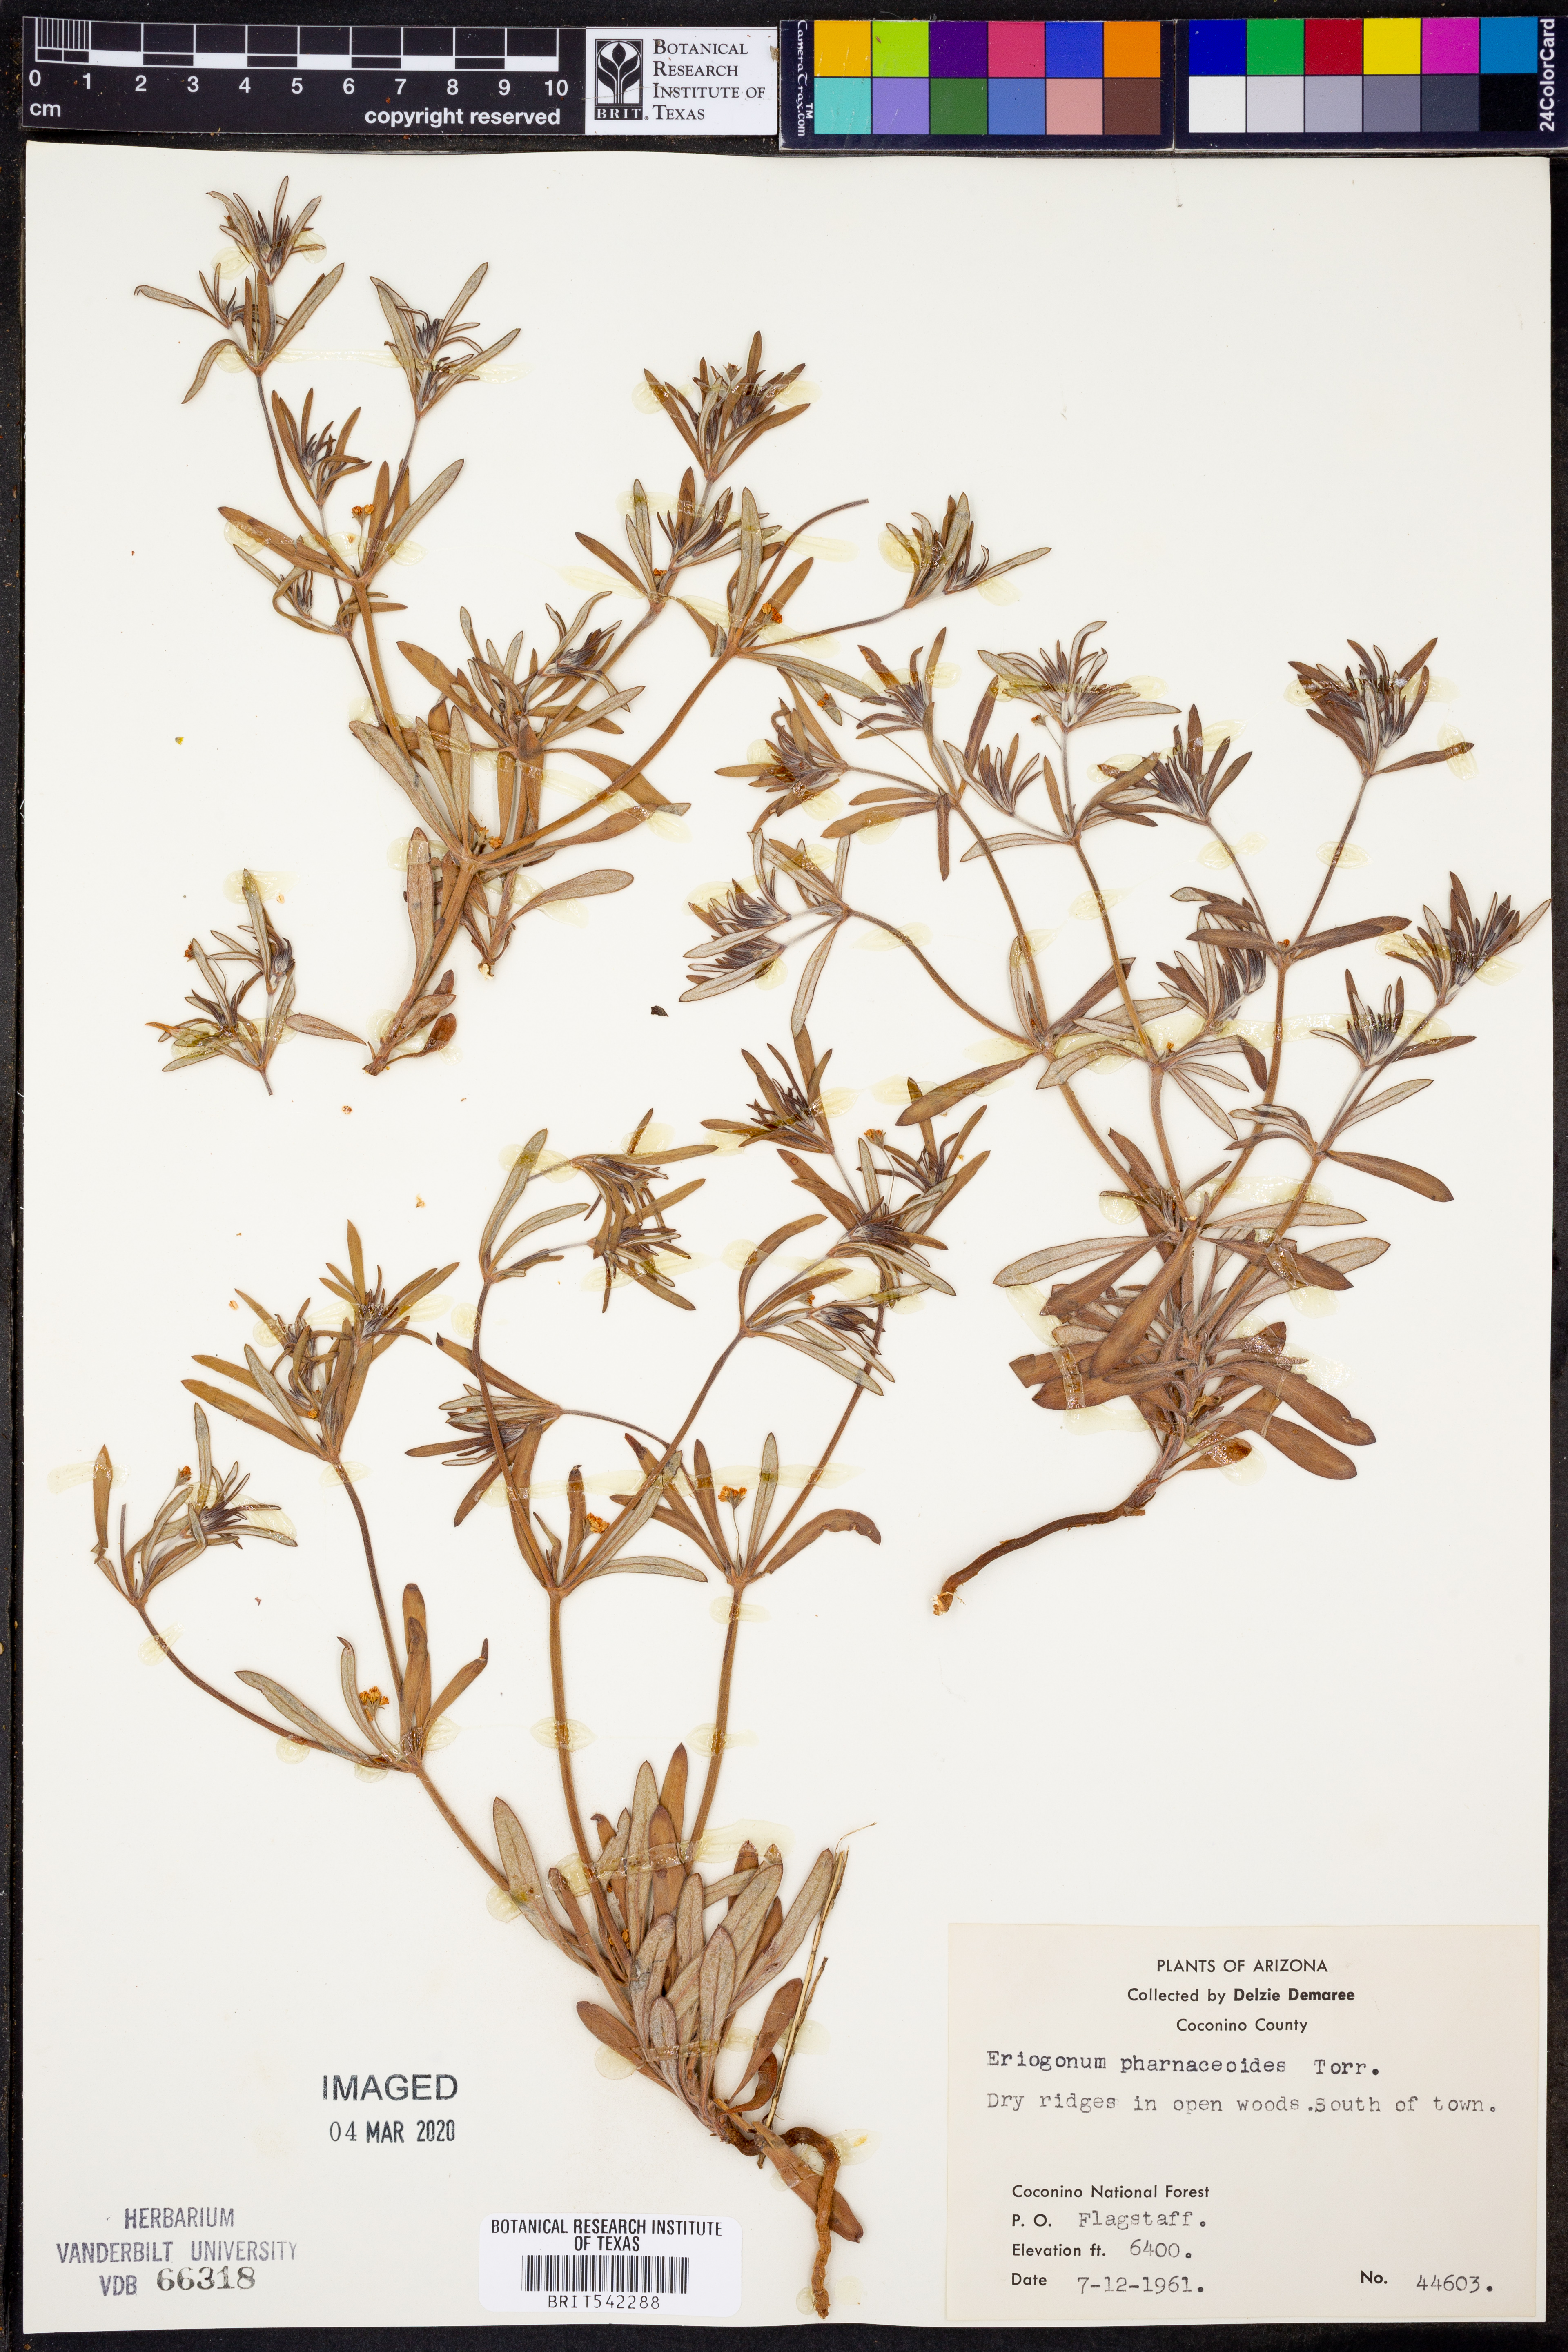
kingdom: Plantae
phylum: Tracheophyta
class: Magnoliopsida
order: Caryophyllales
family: Polygonaceae
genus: Eriogonum
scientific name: Eriogonum pharnaceoides
